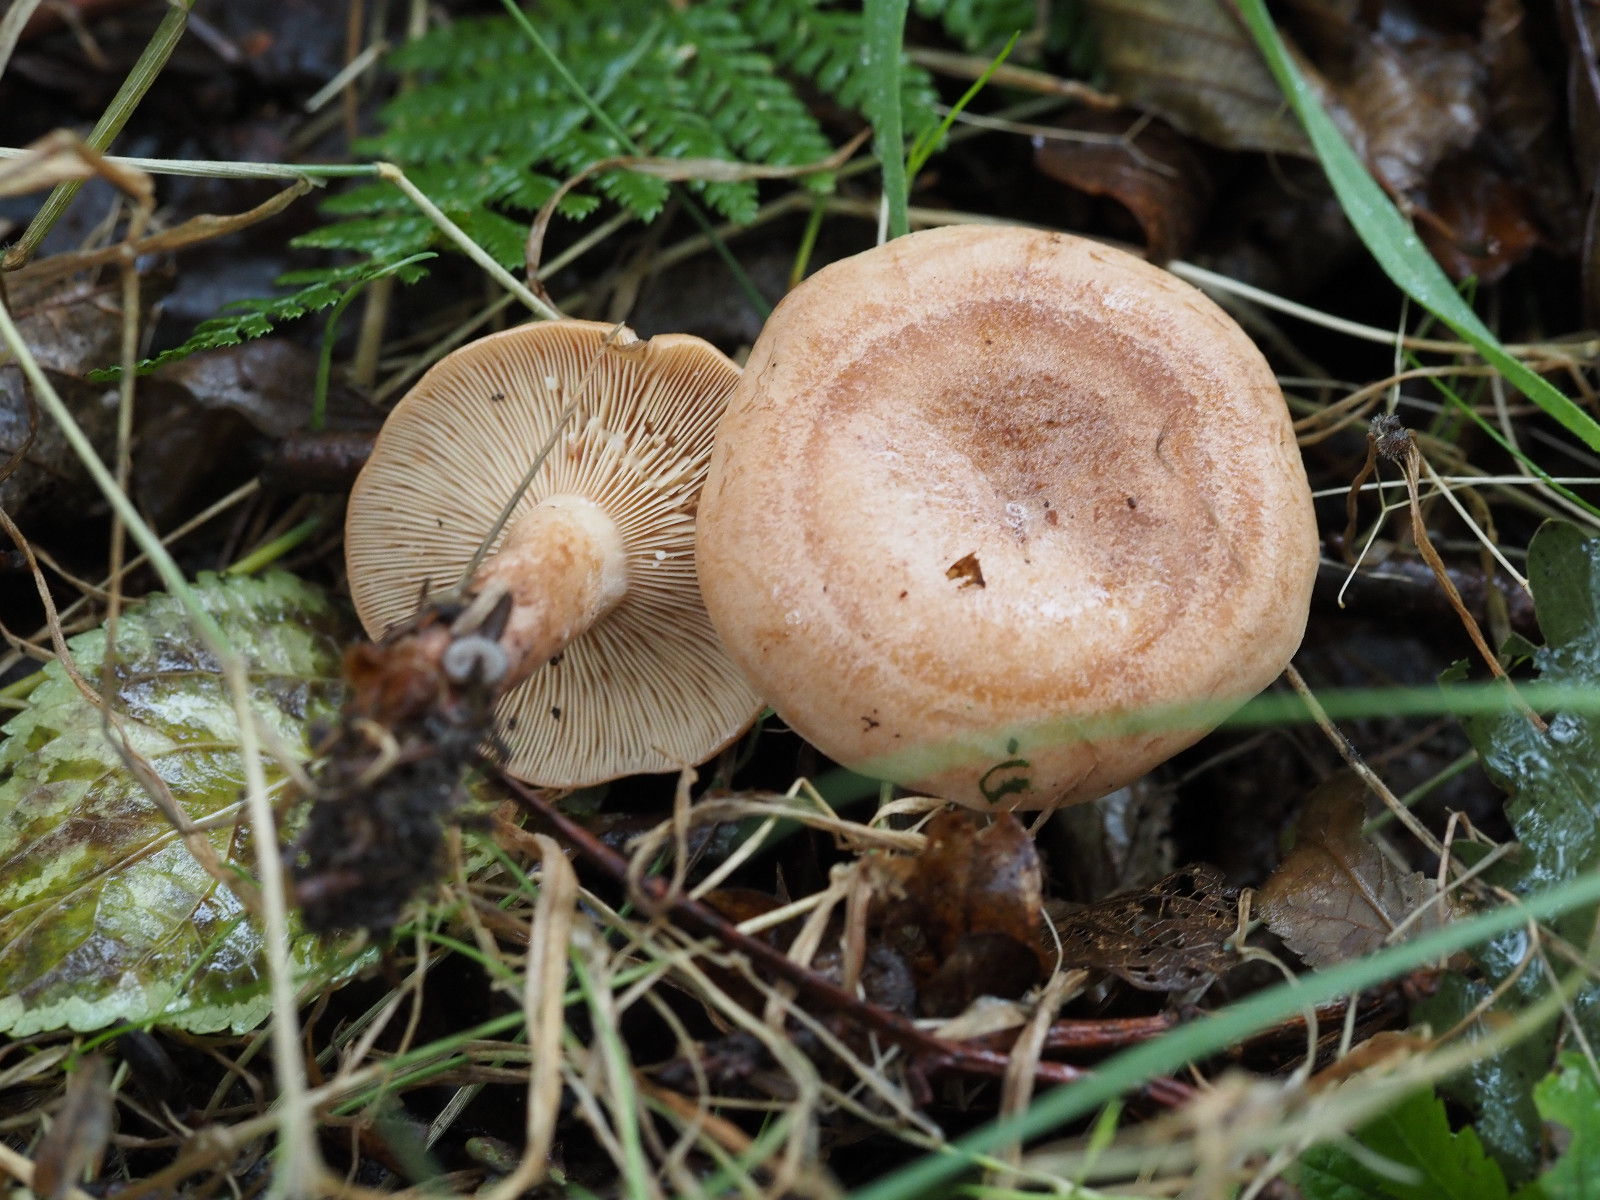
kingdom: Fungi
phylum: Basidiomycota
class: Agaricomycetes
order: Russulales
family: Russulaceae
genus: Lactarius
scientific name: Lactarius quietus
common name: ege-mælkehat
